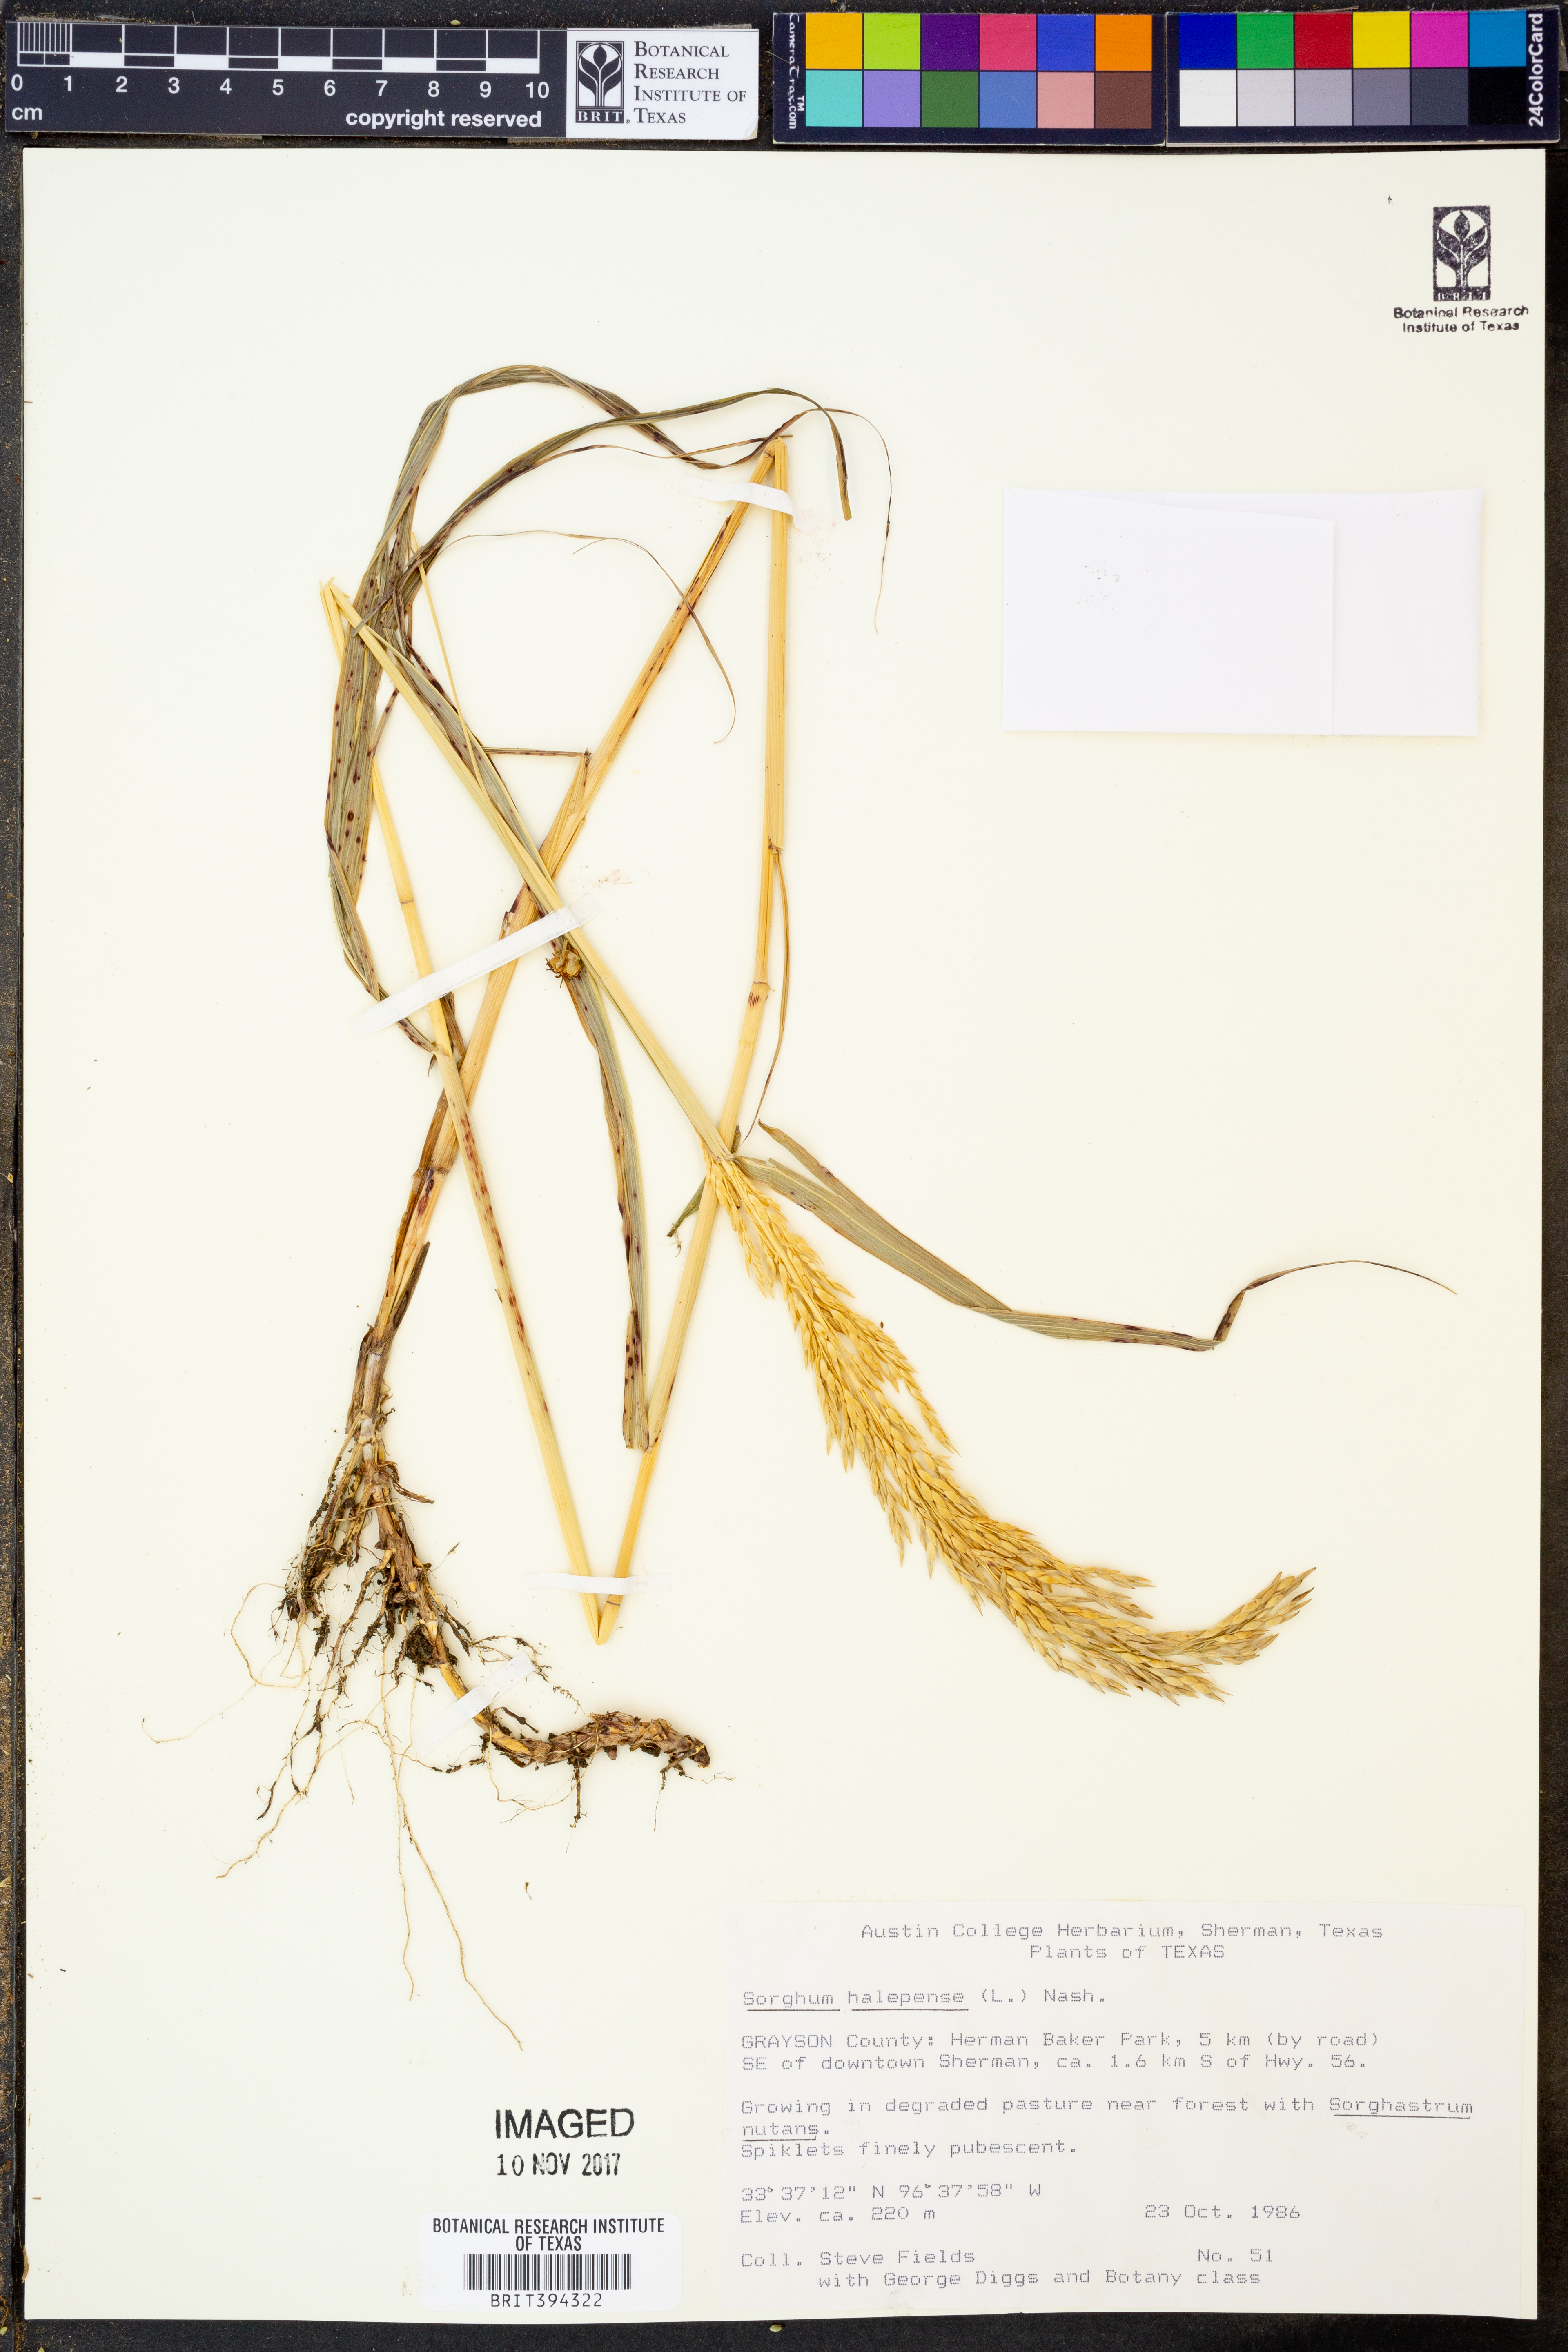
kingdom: Plantae
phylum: Tracheophyta
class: Liliopsida
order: Poales
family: Poaceae
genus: Sorghum
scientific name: Sorghum halepense
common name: Johnson-grass
